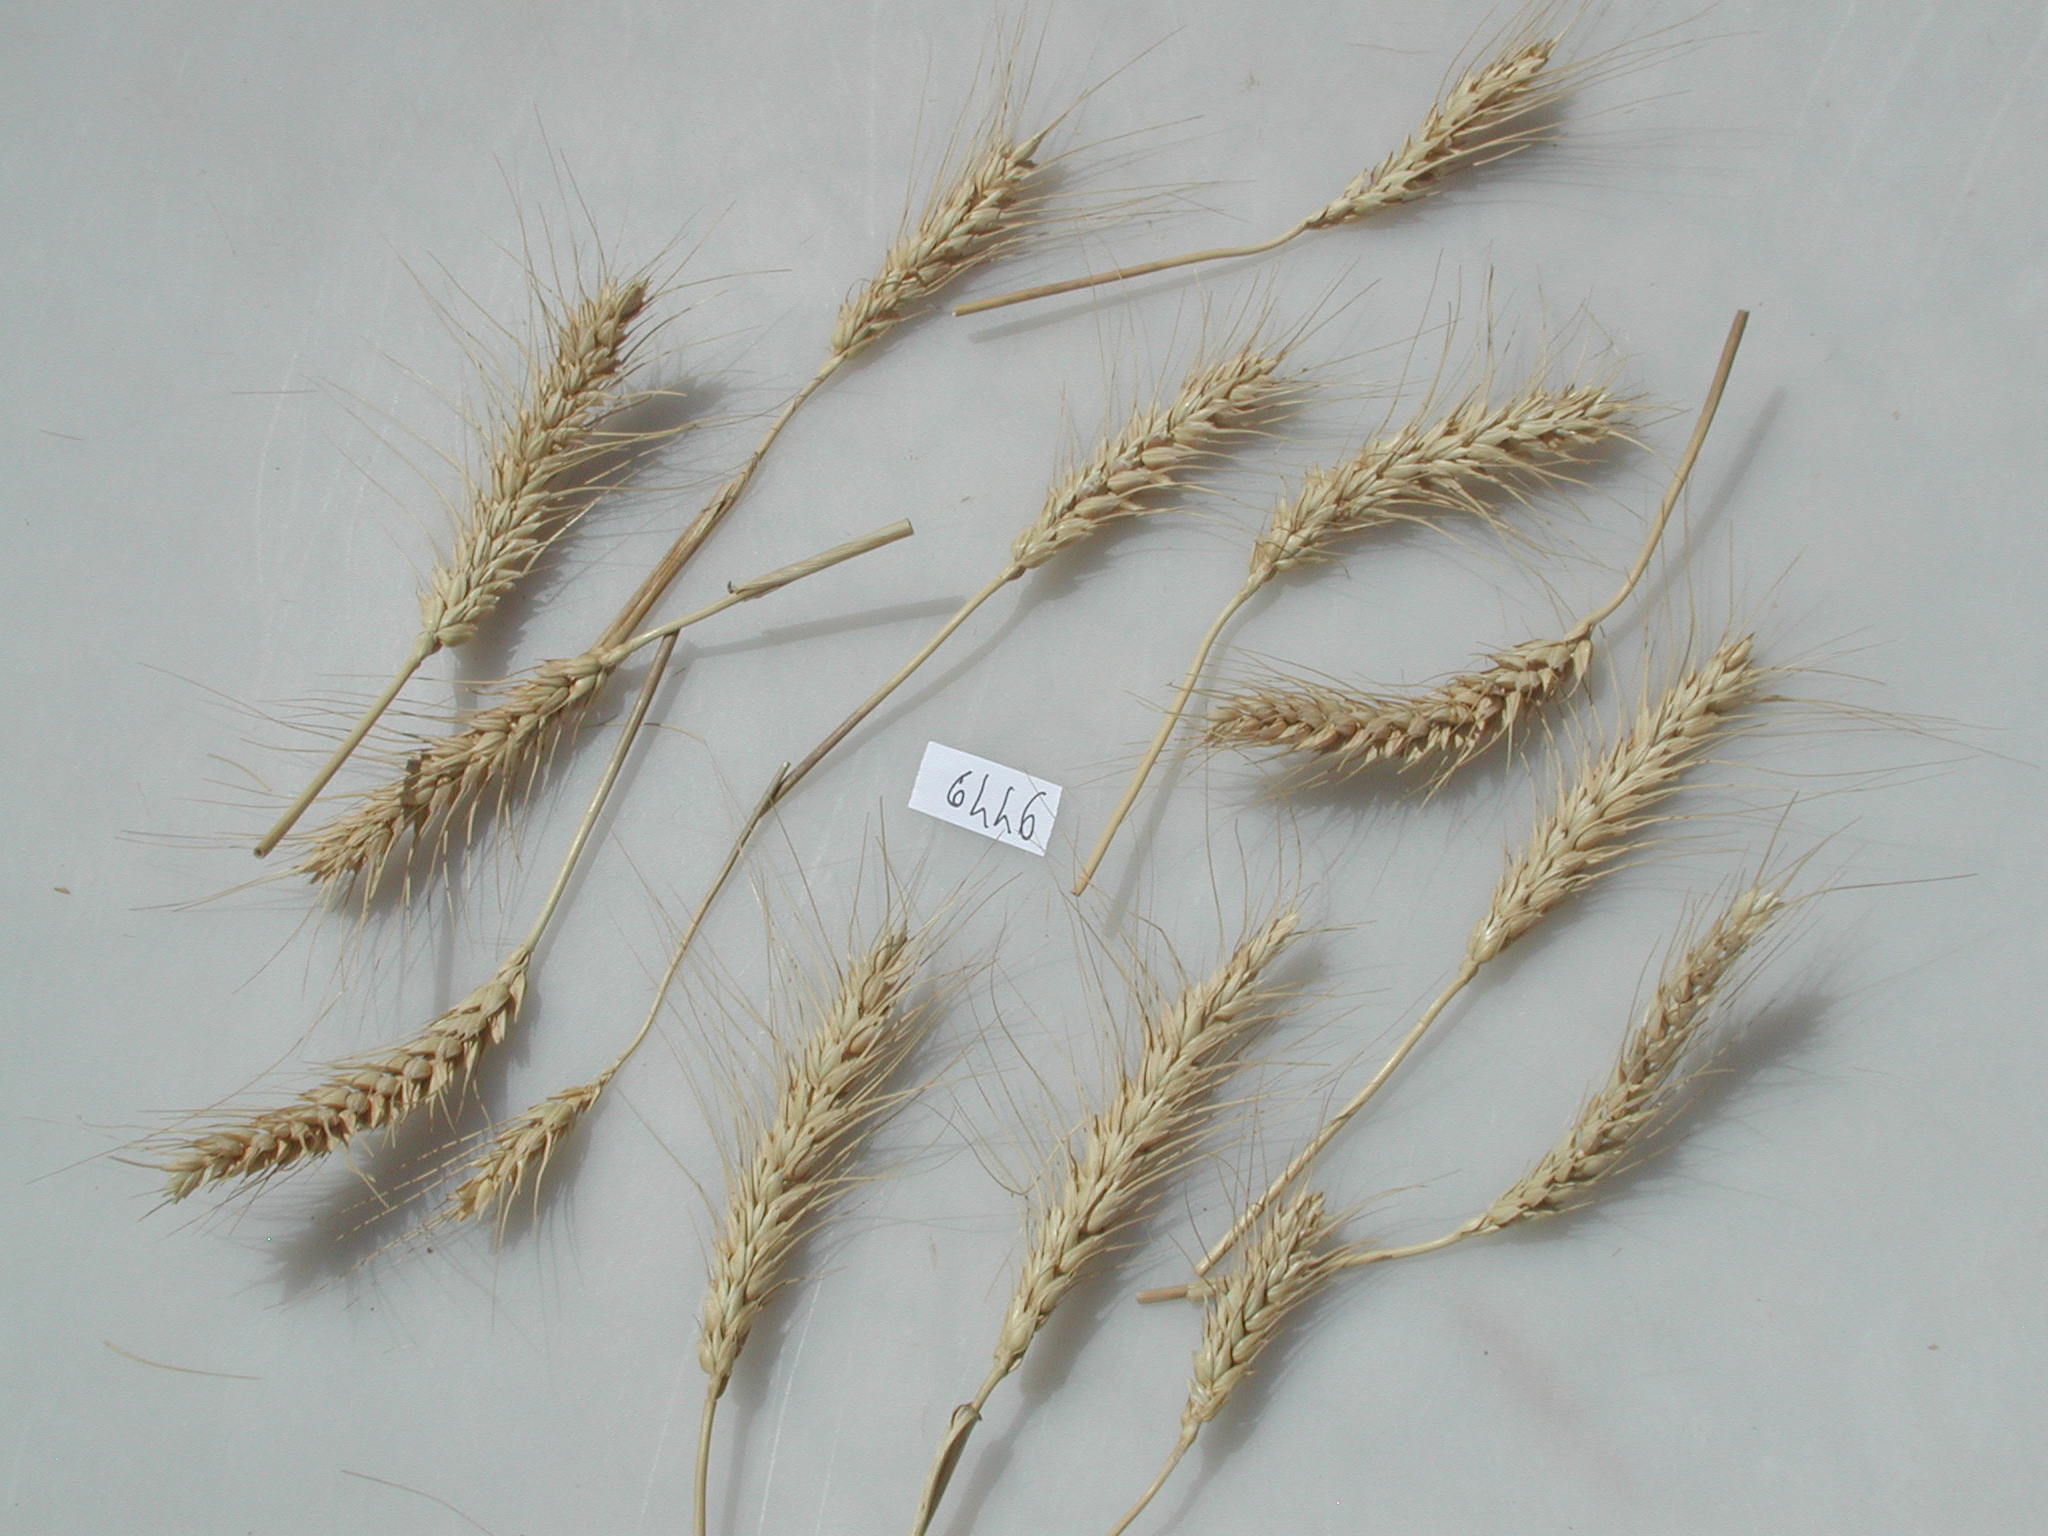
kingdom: Plantae
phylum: Tracheophyta
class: Liliopsida
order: Poales
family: Poaceae
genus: Triticum
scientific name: Triticum aestivum
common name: Wheat
